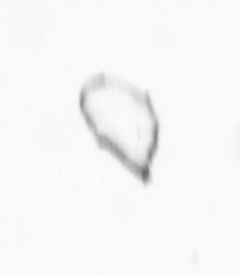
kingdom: Chromista
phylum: Ochrophyta
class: Bacillariophyceae
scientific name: Bacillariophyceae
